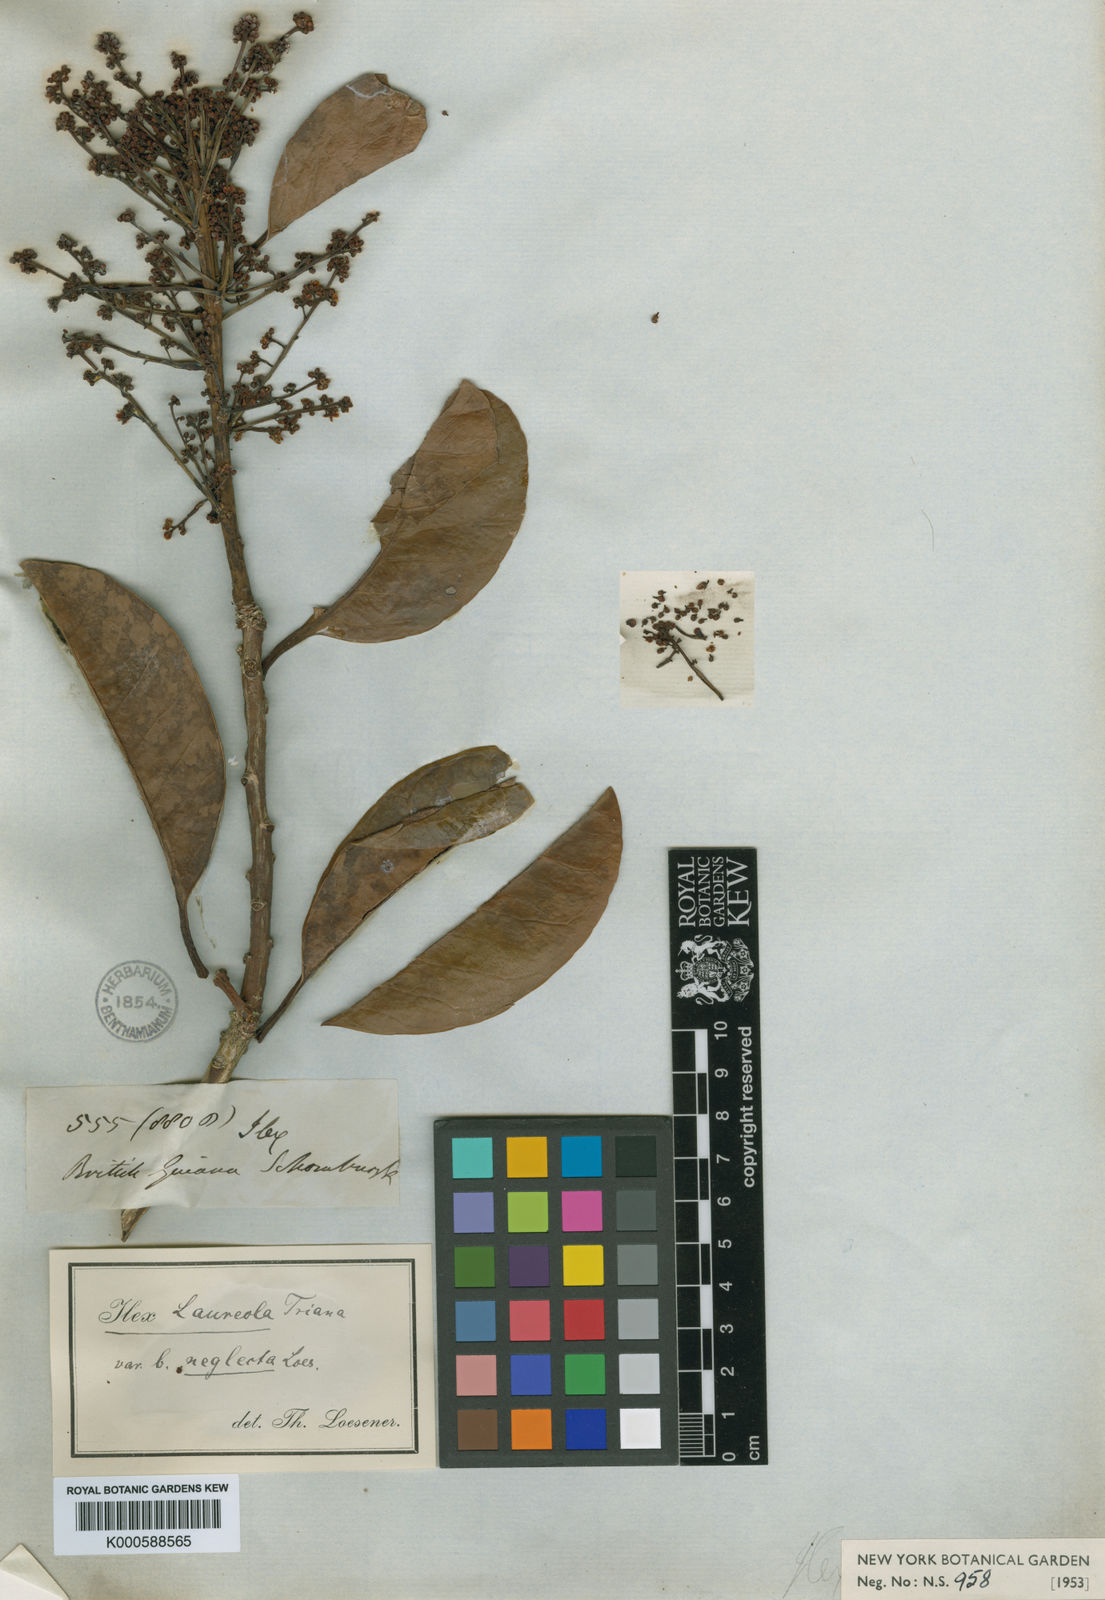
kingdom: Plantae
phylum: Tracheophyta
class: Magnoliopsida
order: Aquifoliales
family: Aquifoliaceae
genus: Ilex
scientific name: Ilex laureola
